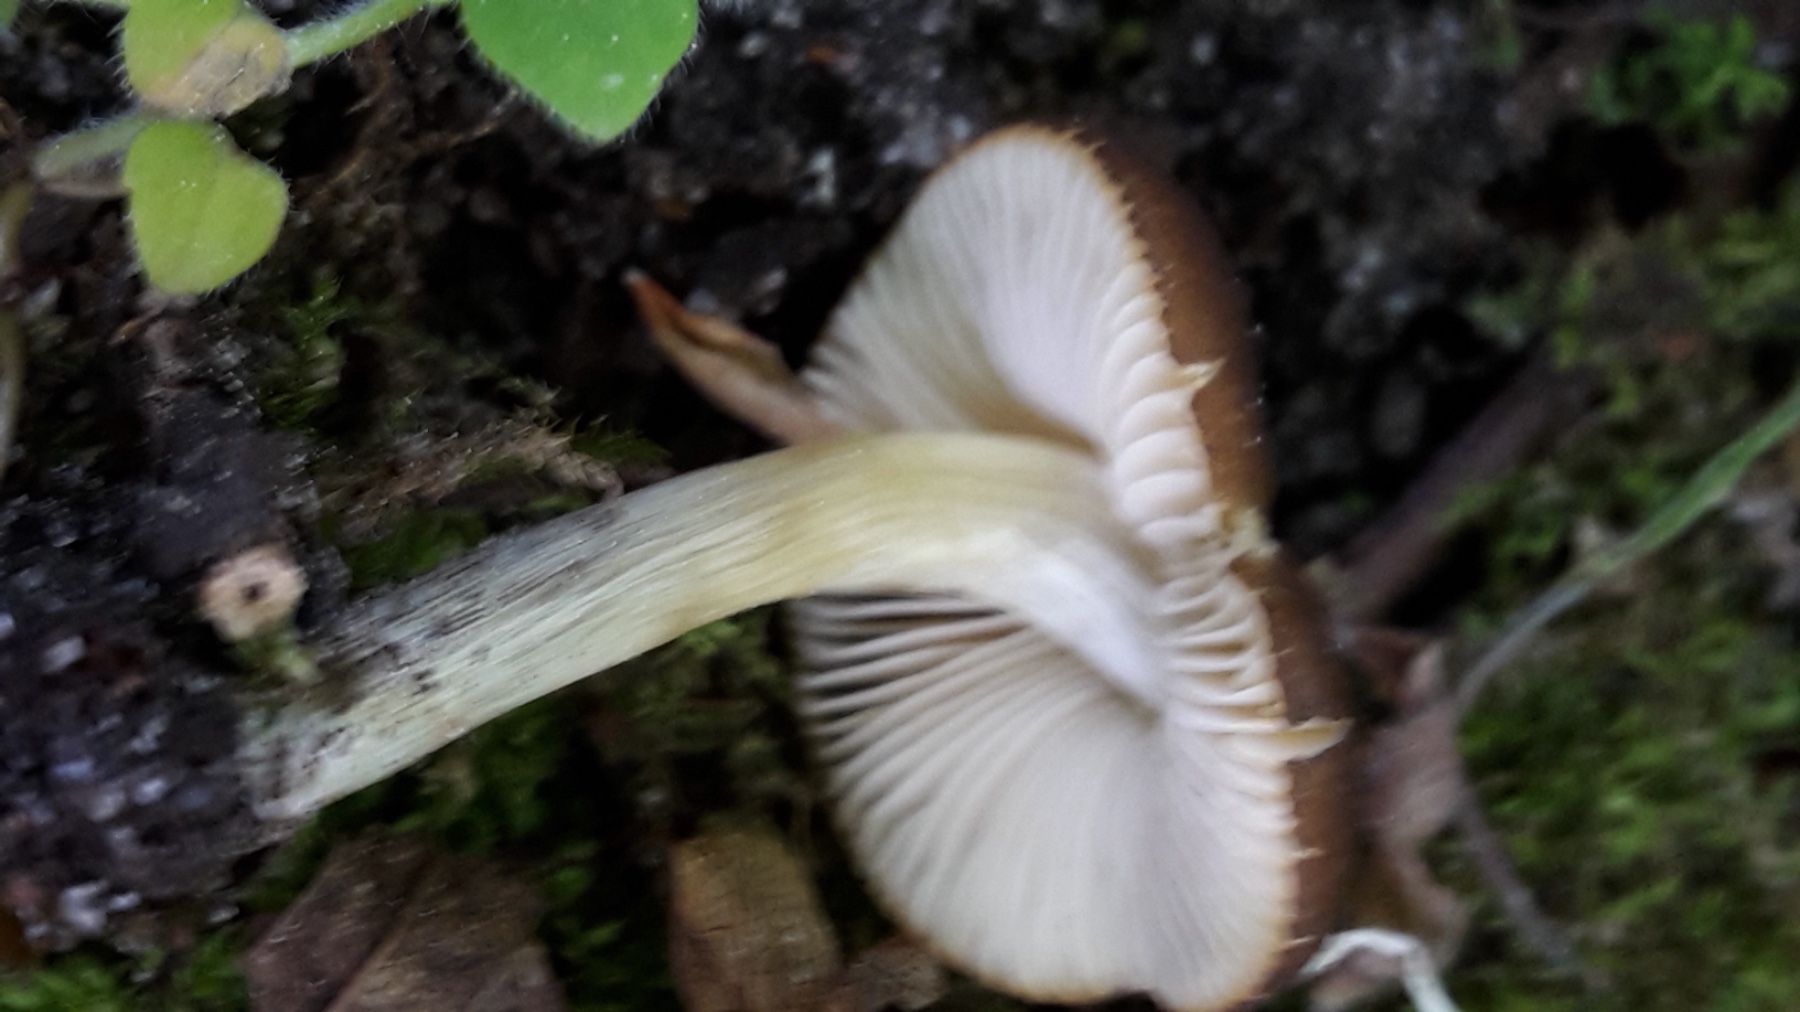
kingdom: Fungi
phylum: Basidiomycota
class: Agaricomycetes
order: Agaricales
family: Pluteaceae
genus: Pluteus
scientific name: Pluteus romellii
